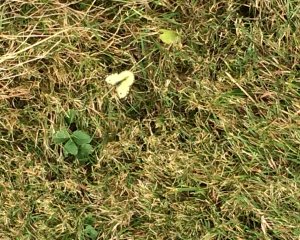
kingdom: Animalia
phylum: Arthropoda
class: Insecta
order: Lepidoptera
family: Pieridae
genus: Colias
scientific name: Colias philodice
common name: Clouded Sulphur
